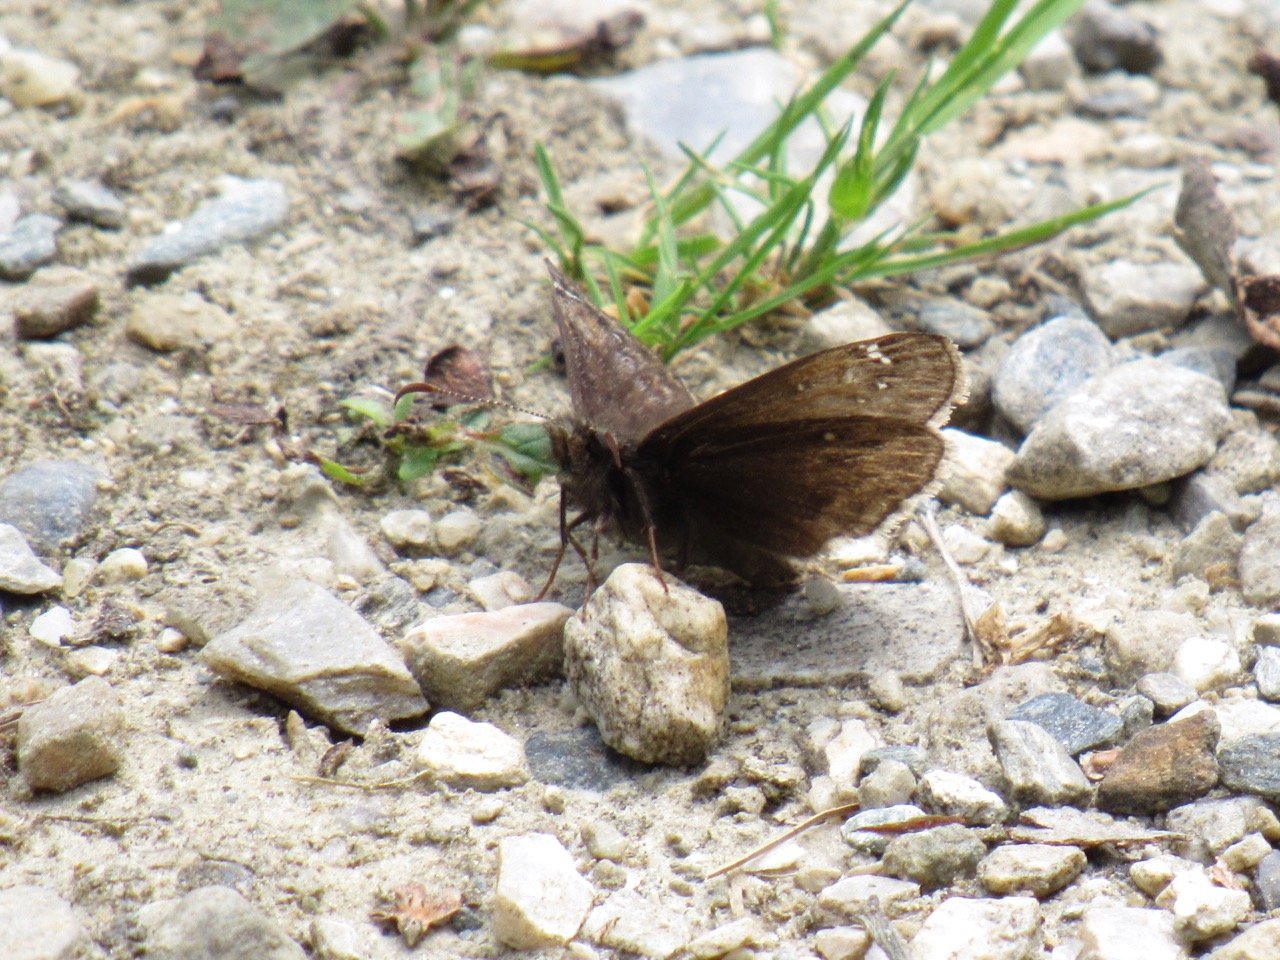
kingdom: Animalia
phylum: Arthropoda
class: Insecta
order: Lepidoptera
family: Hesperiidae
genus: Gesta
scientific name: Gesta
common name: Juvenal's Duskywing
